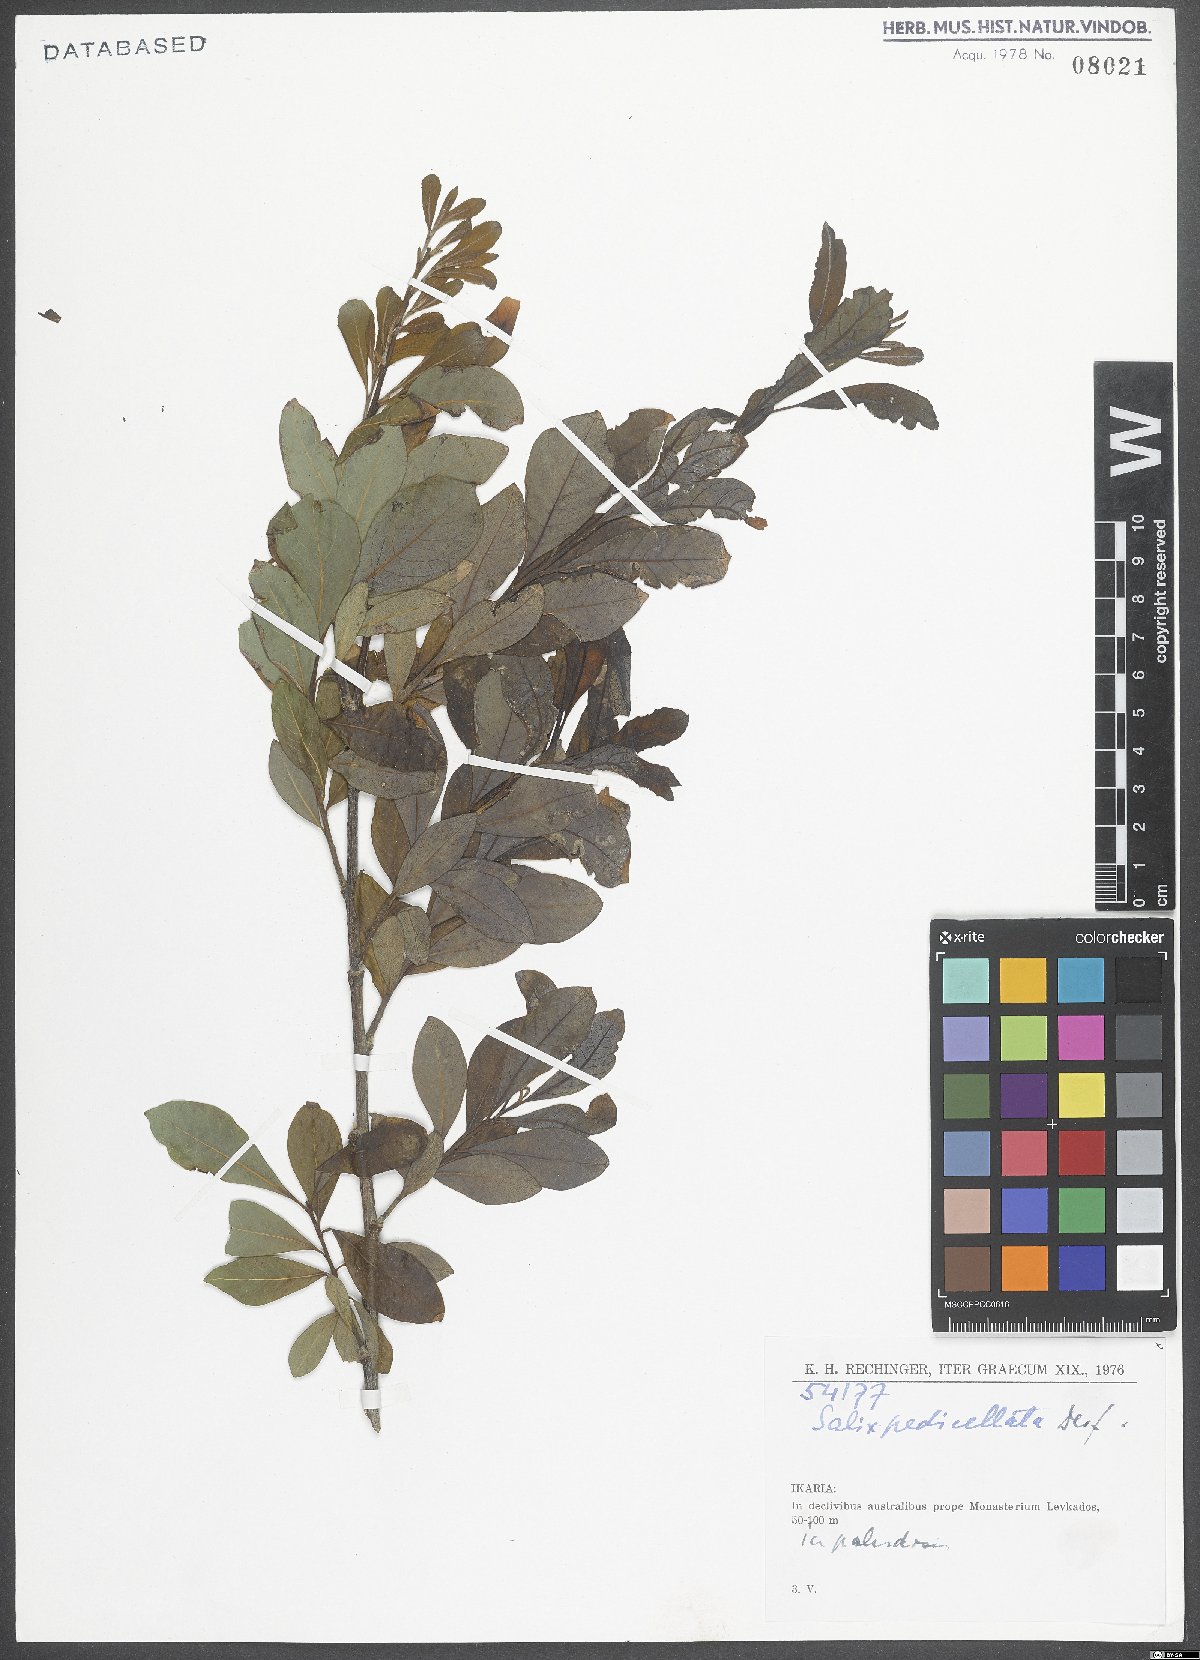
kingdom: Plantae
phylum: Tracheophyta
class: Magnoliopsida
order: Malpighiales
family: Salicaceae
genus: Salix
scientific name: Salix pedicellata
